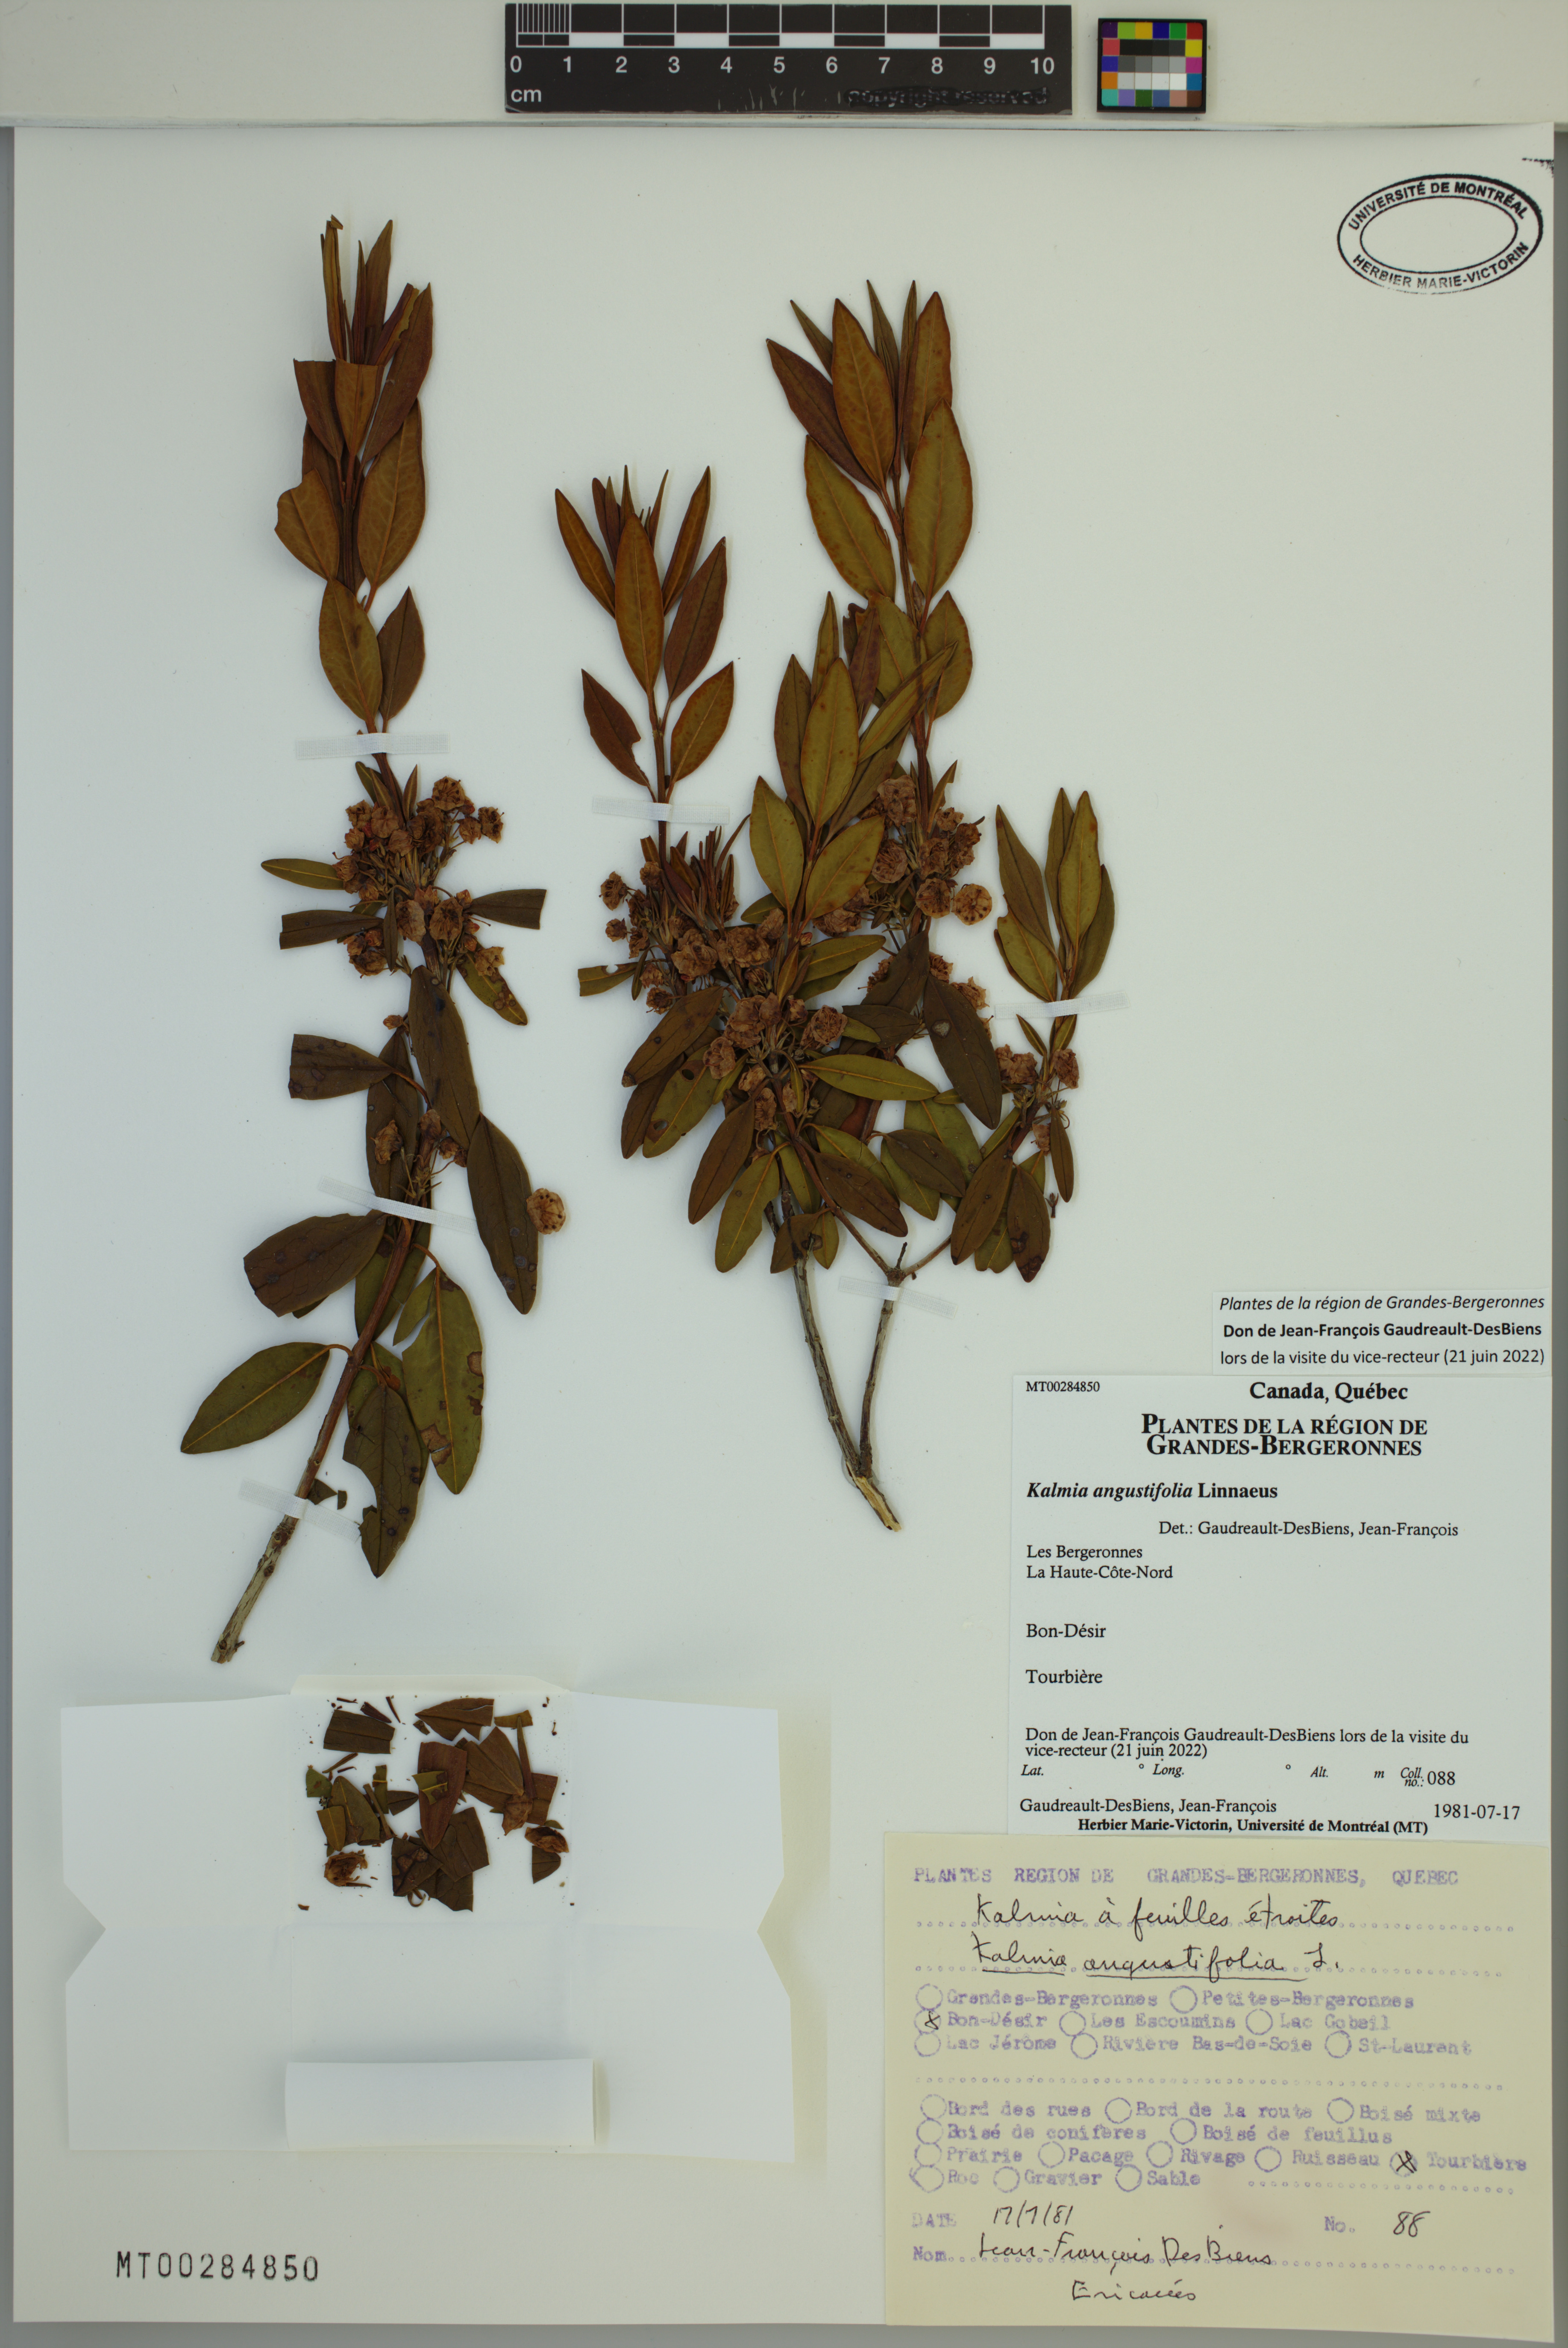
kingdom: Plantae
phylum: Tracheophyta
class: Magnoliopsida
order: Ericales
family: Ericaceae
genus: Kalmia
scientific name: Kalmia angustifolia
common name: Sheep-laurel
